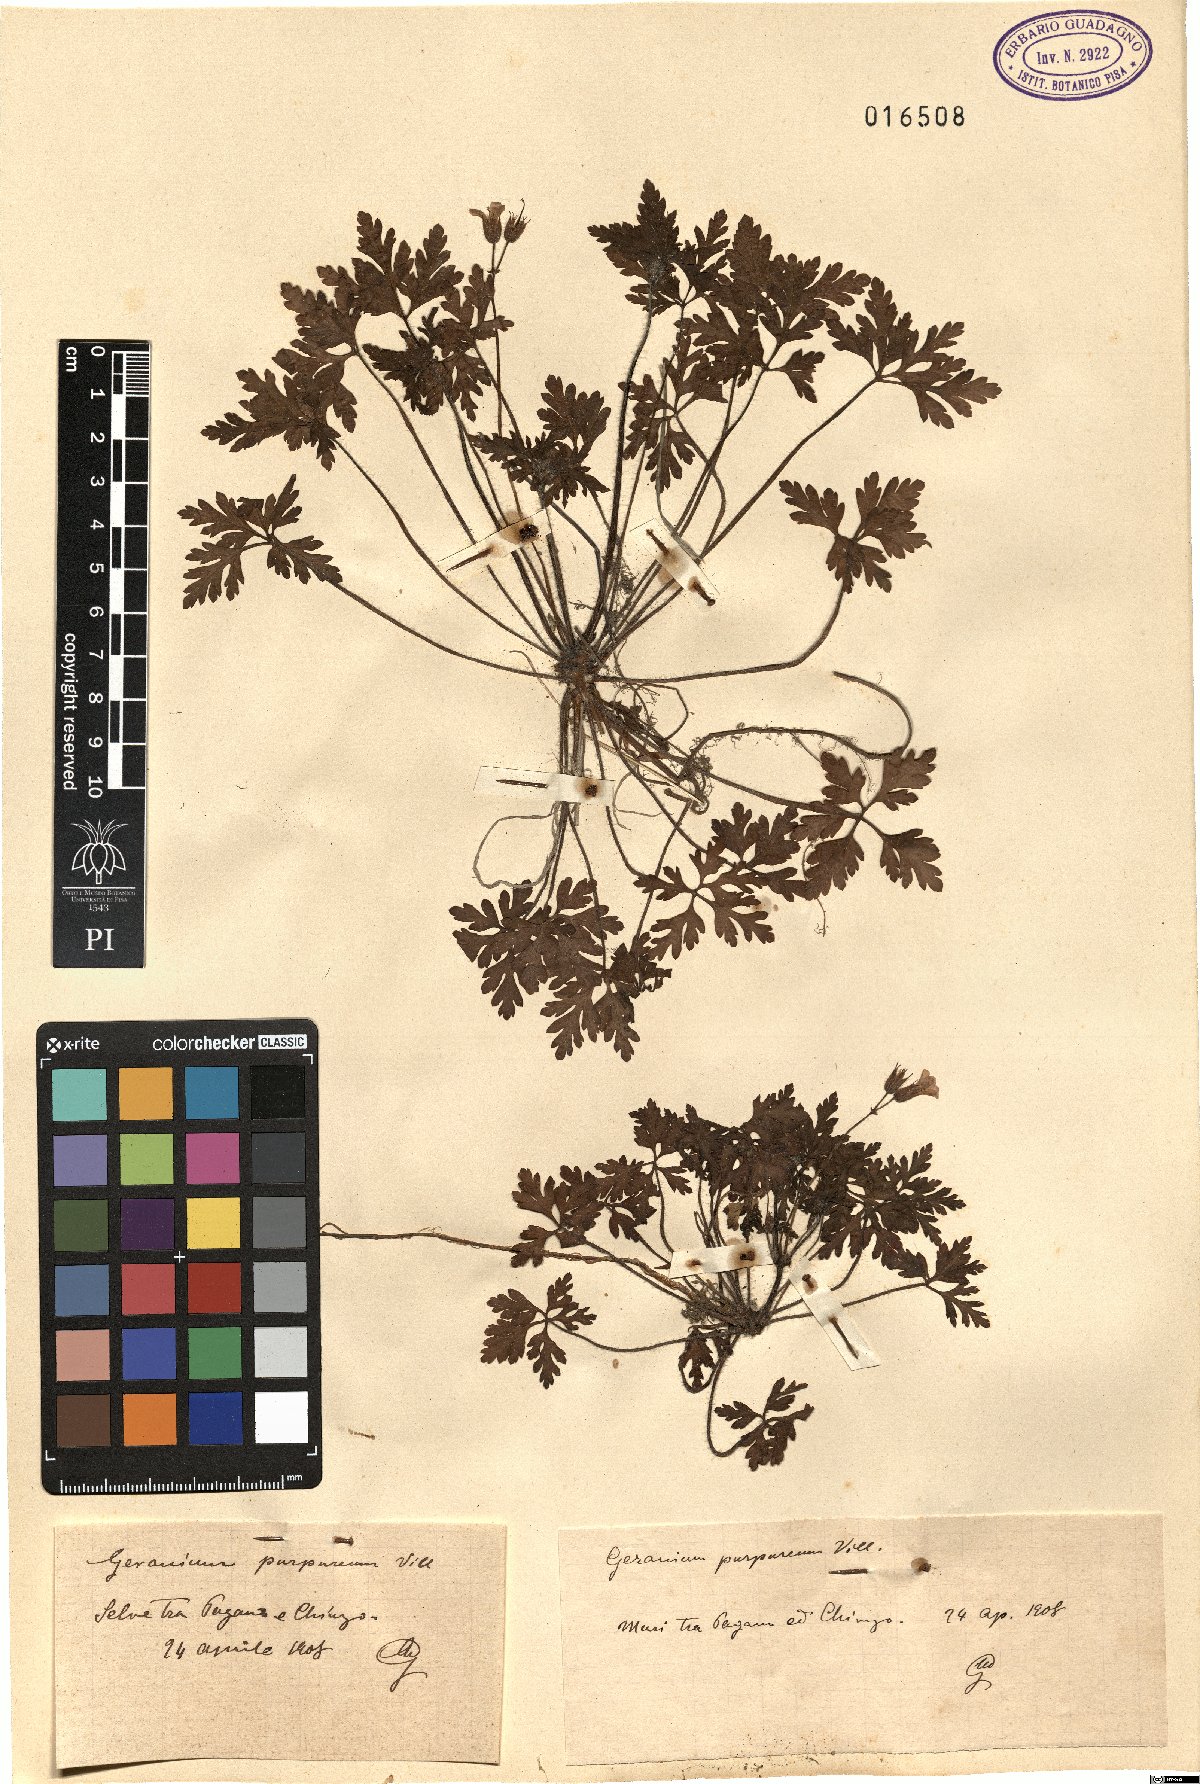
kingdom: Plantae
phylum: Tracheophyta
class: Magnoliopsida
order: Geraniales
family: Geraniaceae
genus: Geranium
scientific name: Geranium purpureum
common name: Little-robin
